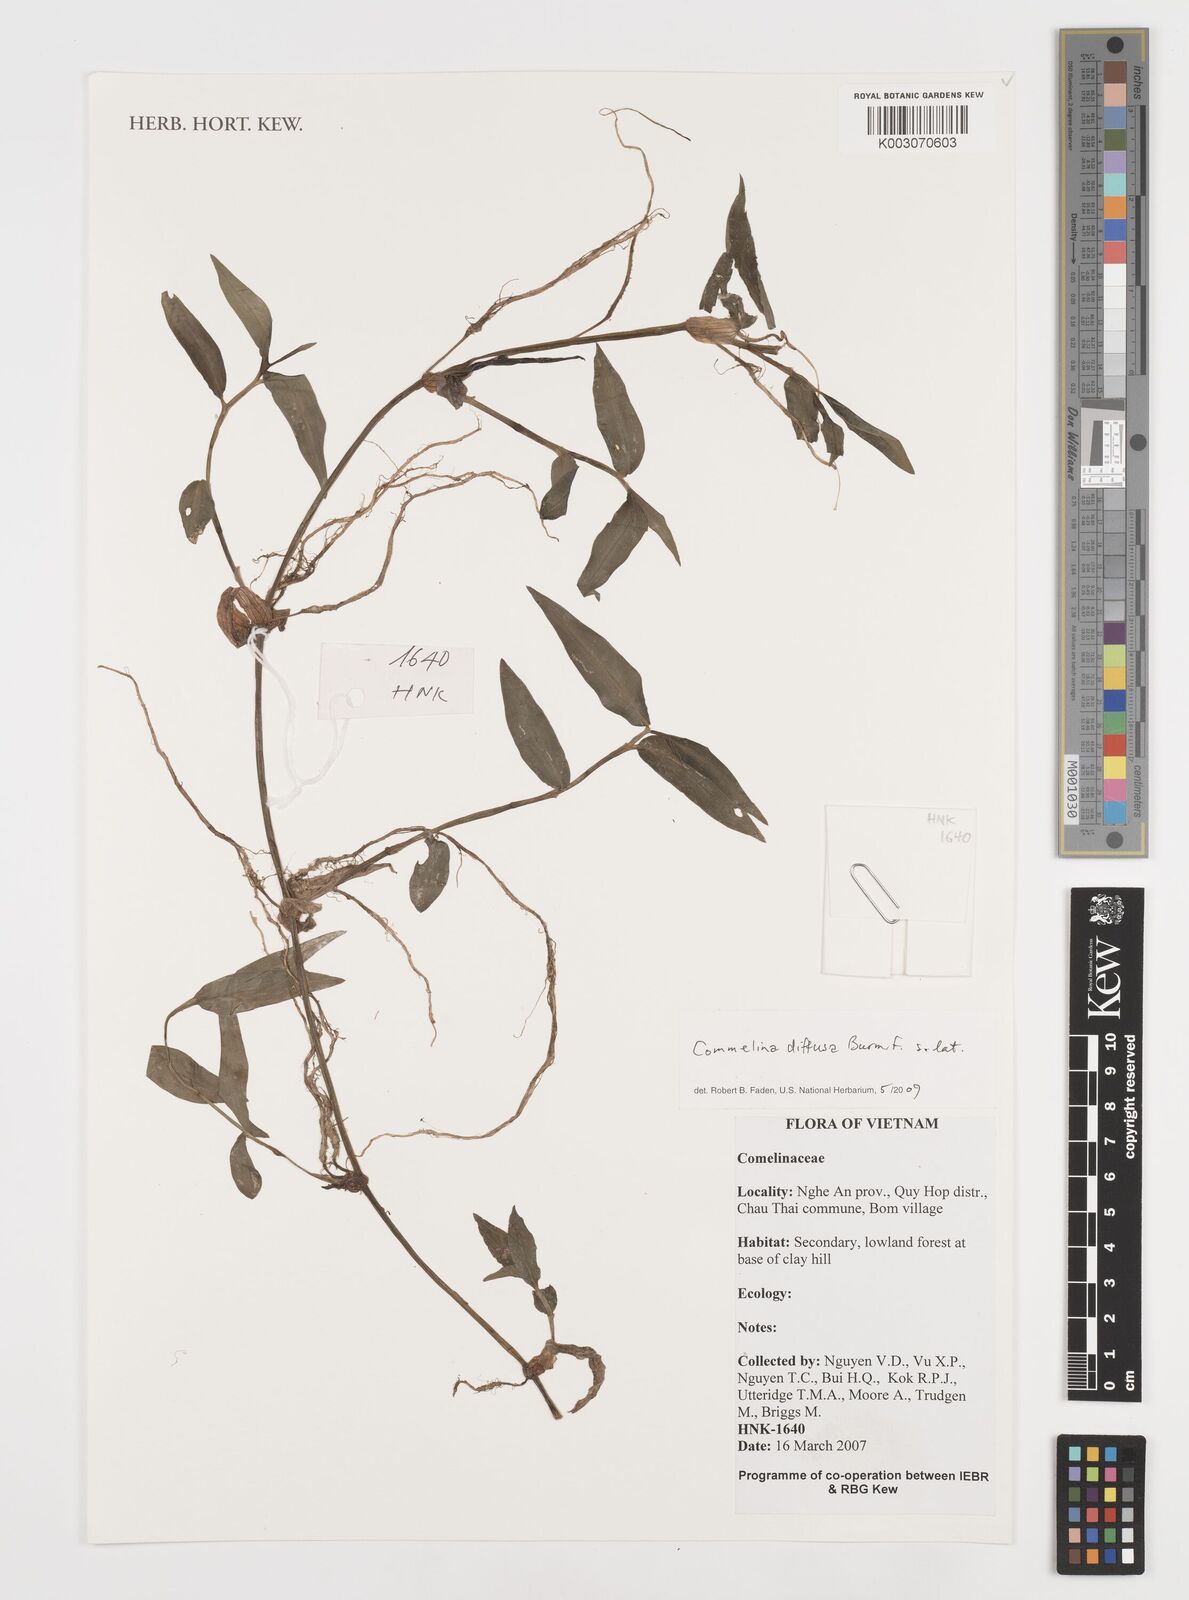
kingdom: Plantae
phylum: Tracheophyta
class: Liliopsida
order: Commelinales
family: Commelinaceae
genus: Commelina
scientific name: Commelina clavata
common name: Willow leaved dayflower
